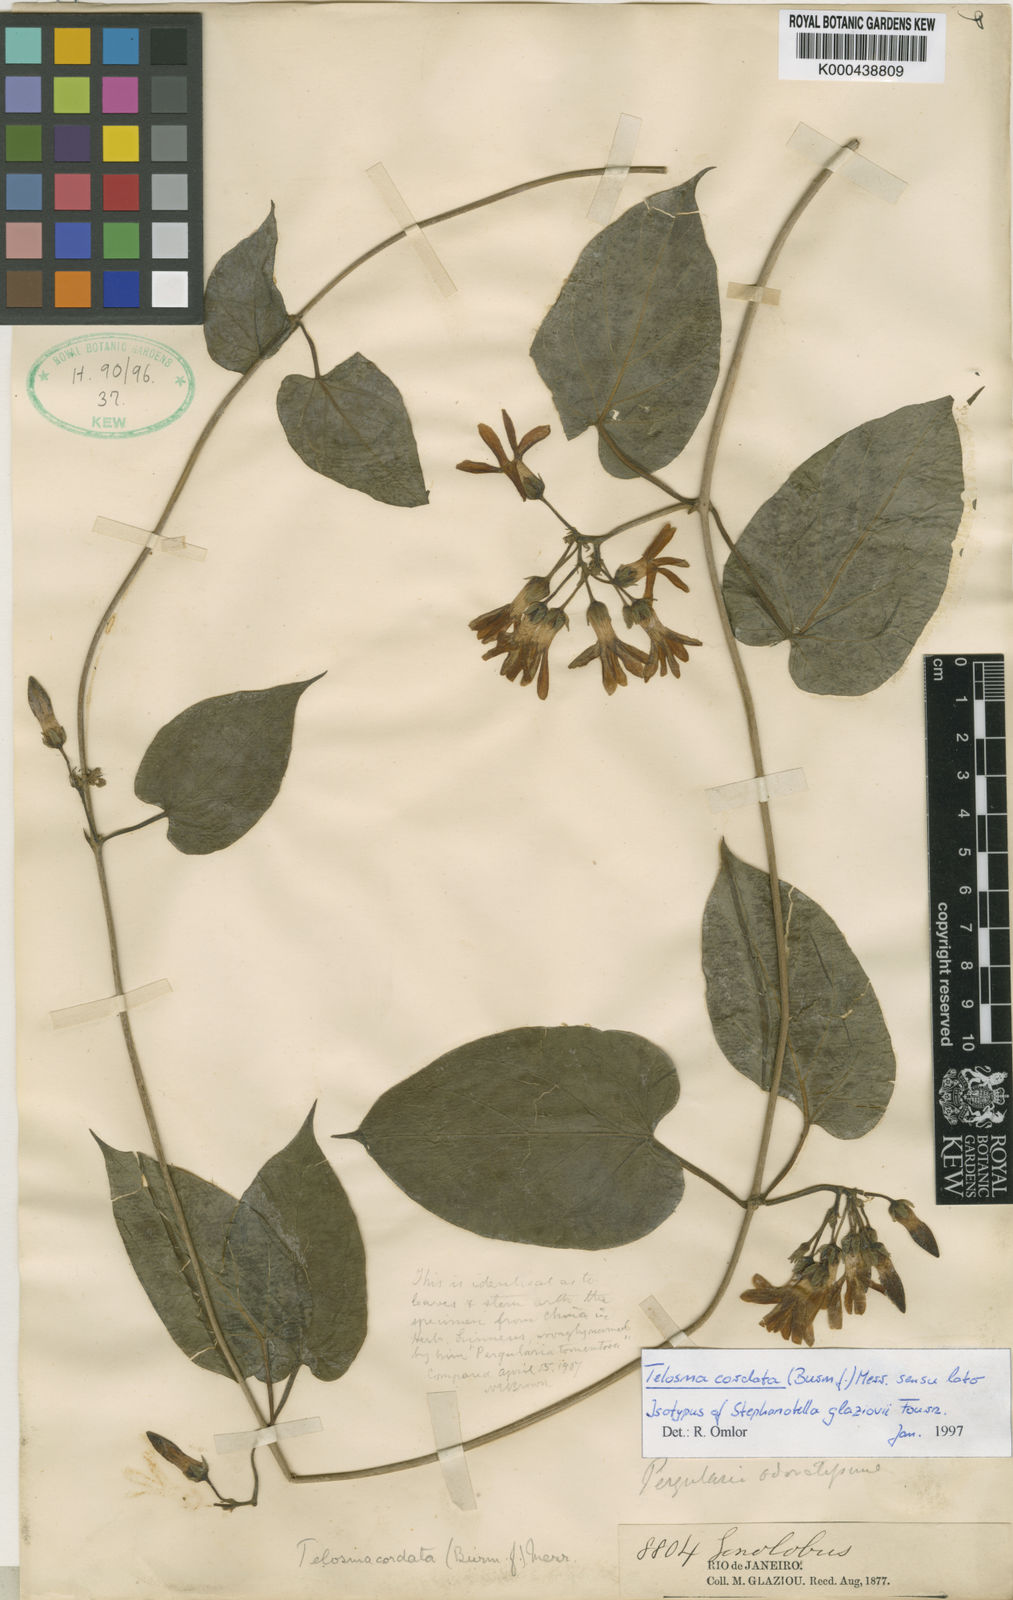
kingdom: Plantae
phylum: Tracheophyta
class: Magnoliopsida
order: Gentianales
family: Apocynaceae
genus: Telosma
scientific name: Telosma cordata
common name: Chinese-violet
